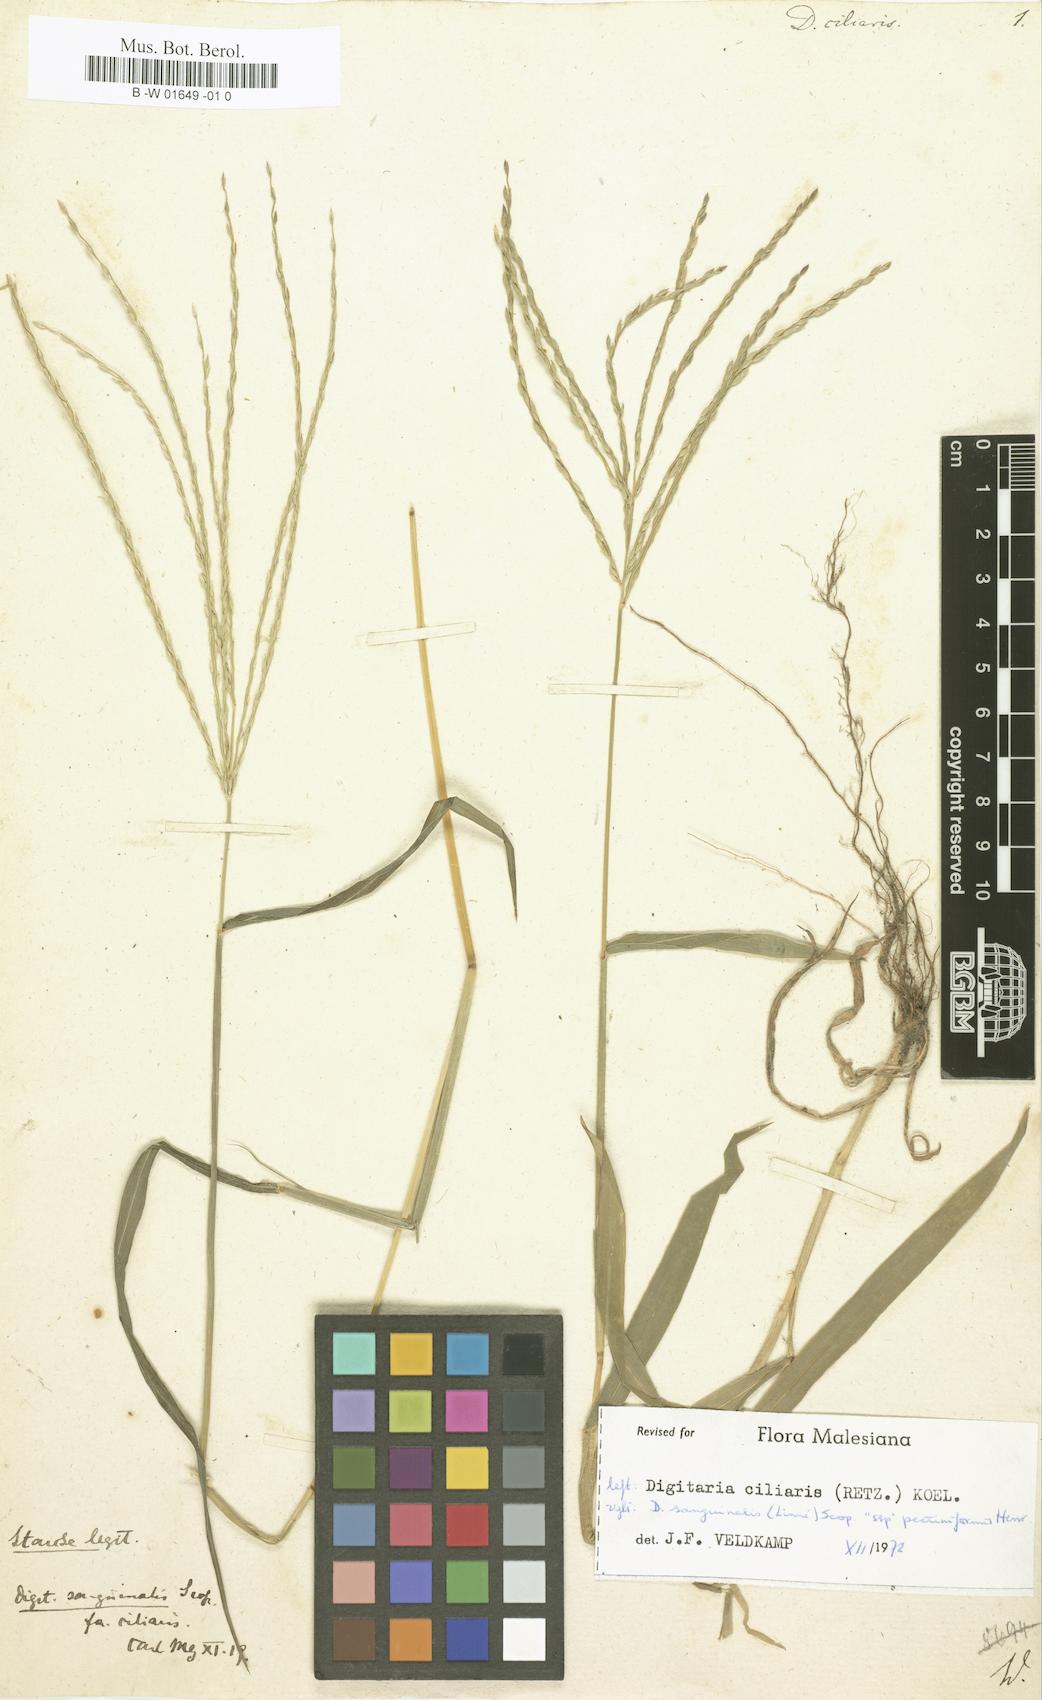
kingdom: Plantae
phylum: Tracheophyta
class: Liliopsida
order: Poales
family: Poaceae
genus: Digitaria
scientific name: Digitaria ciliaris
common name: Tropical finger-grass
